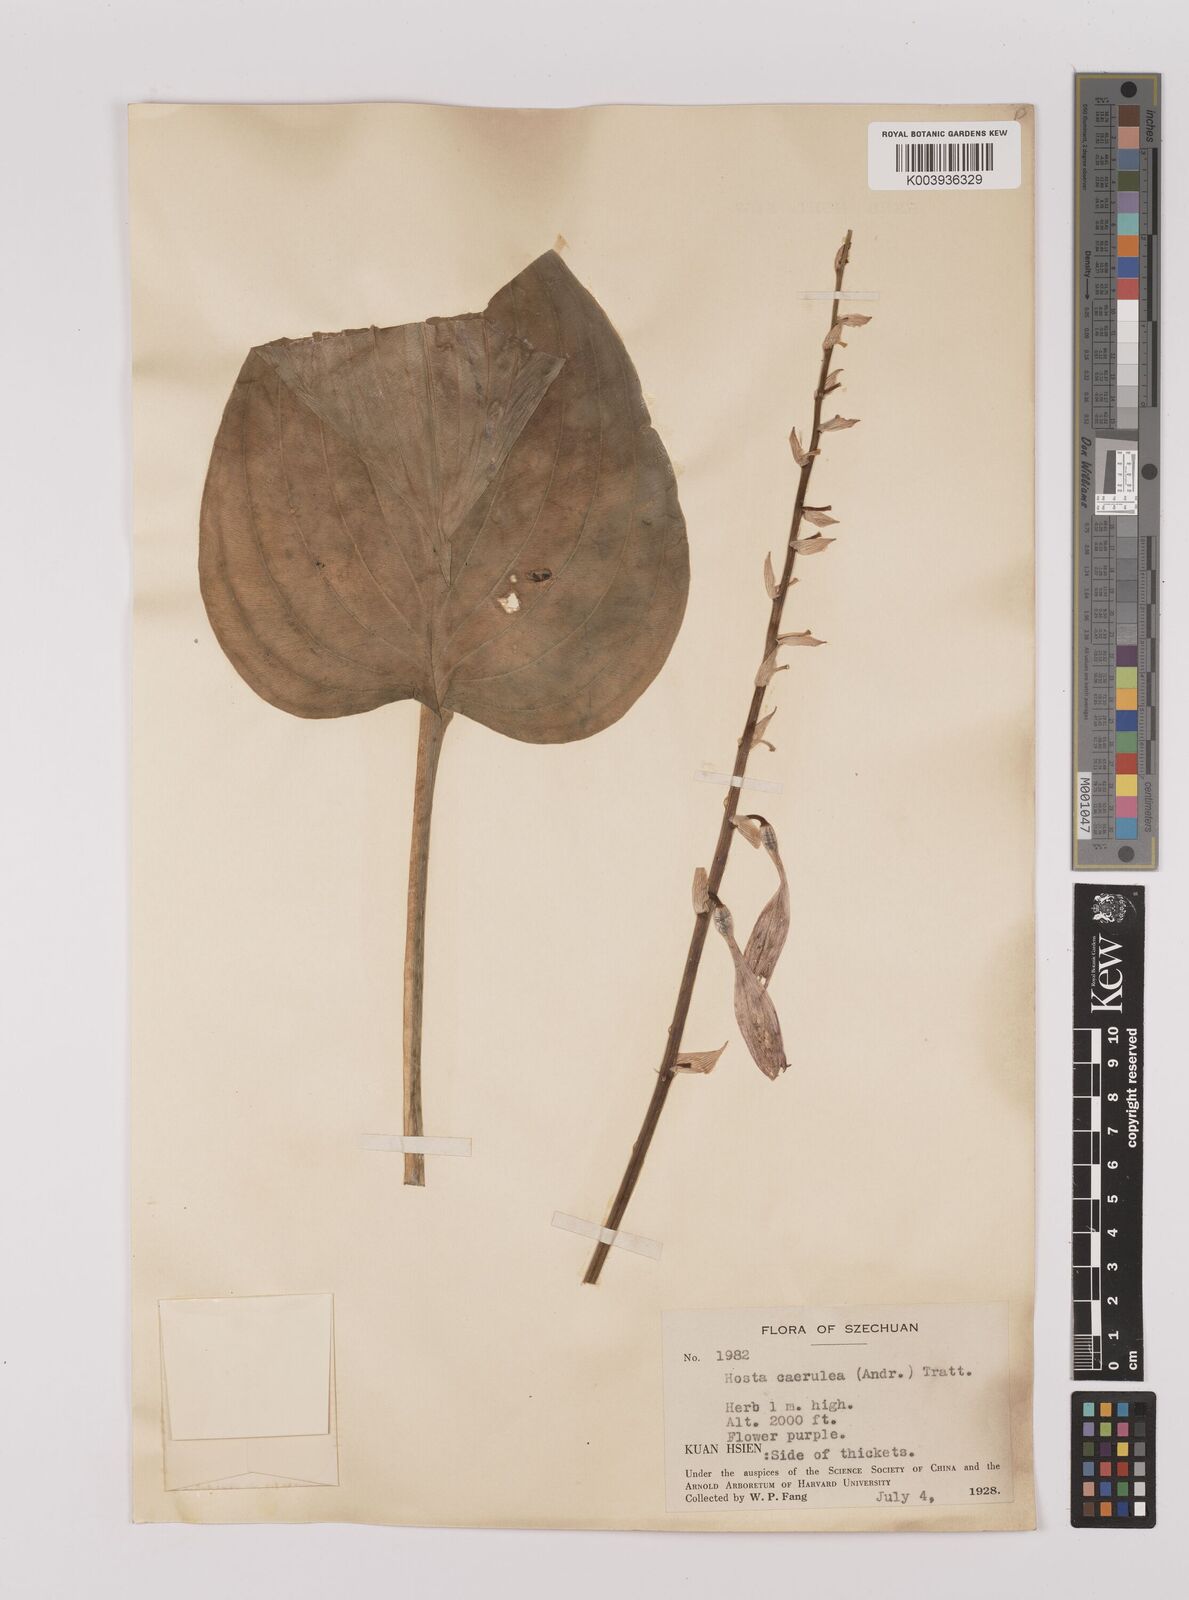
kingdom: Plantae
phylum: Tracheophyta
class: Liliopsida
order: Asparagales
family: Asparagaceae
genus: Hosta
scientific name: Hosta ventricosa
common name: Blue plantain-lily
